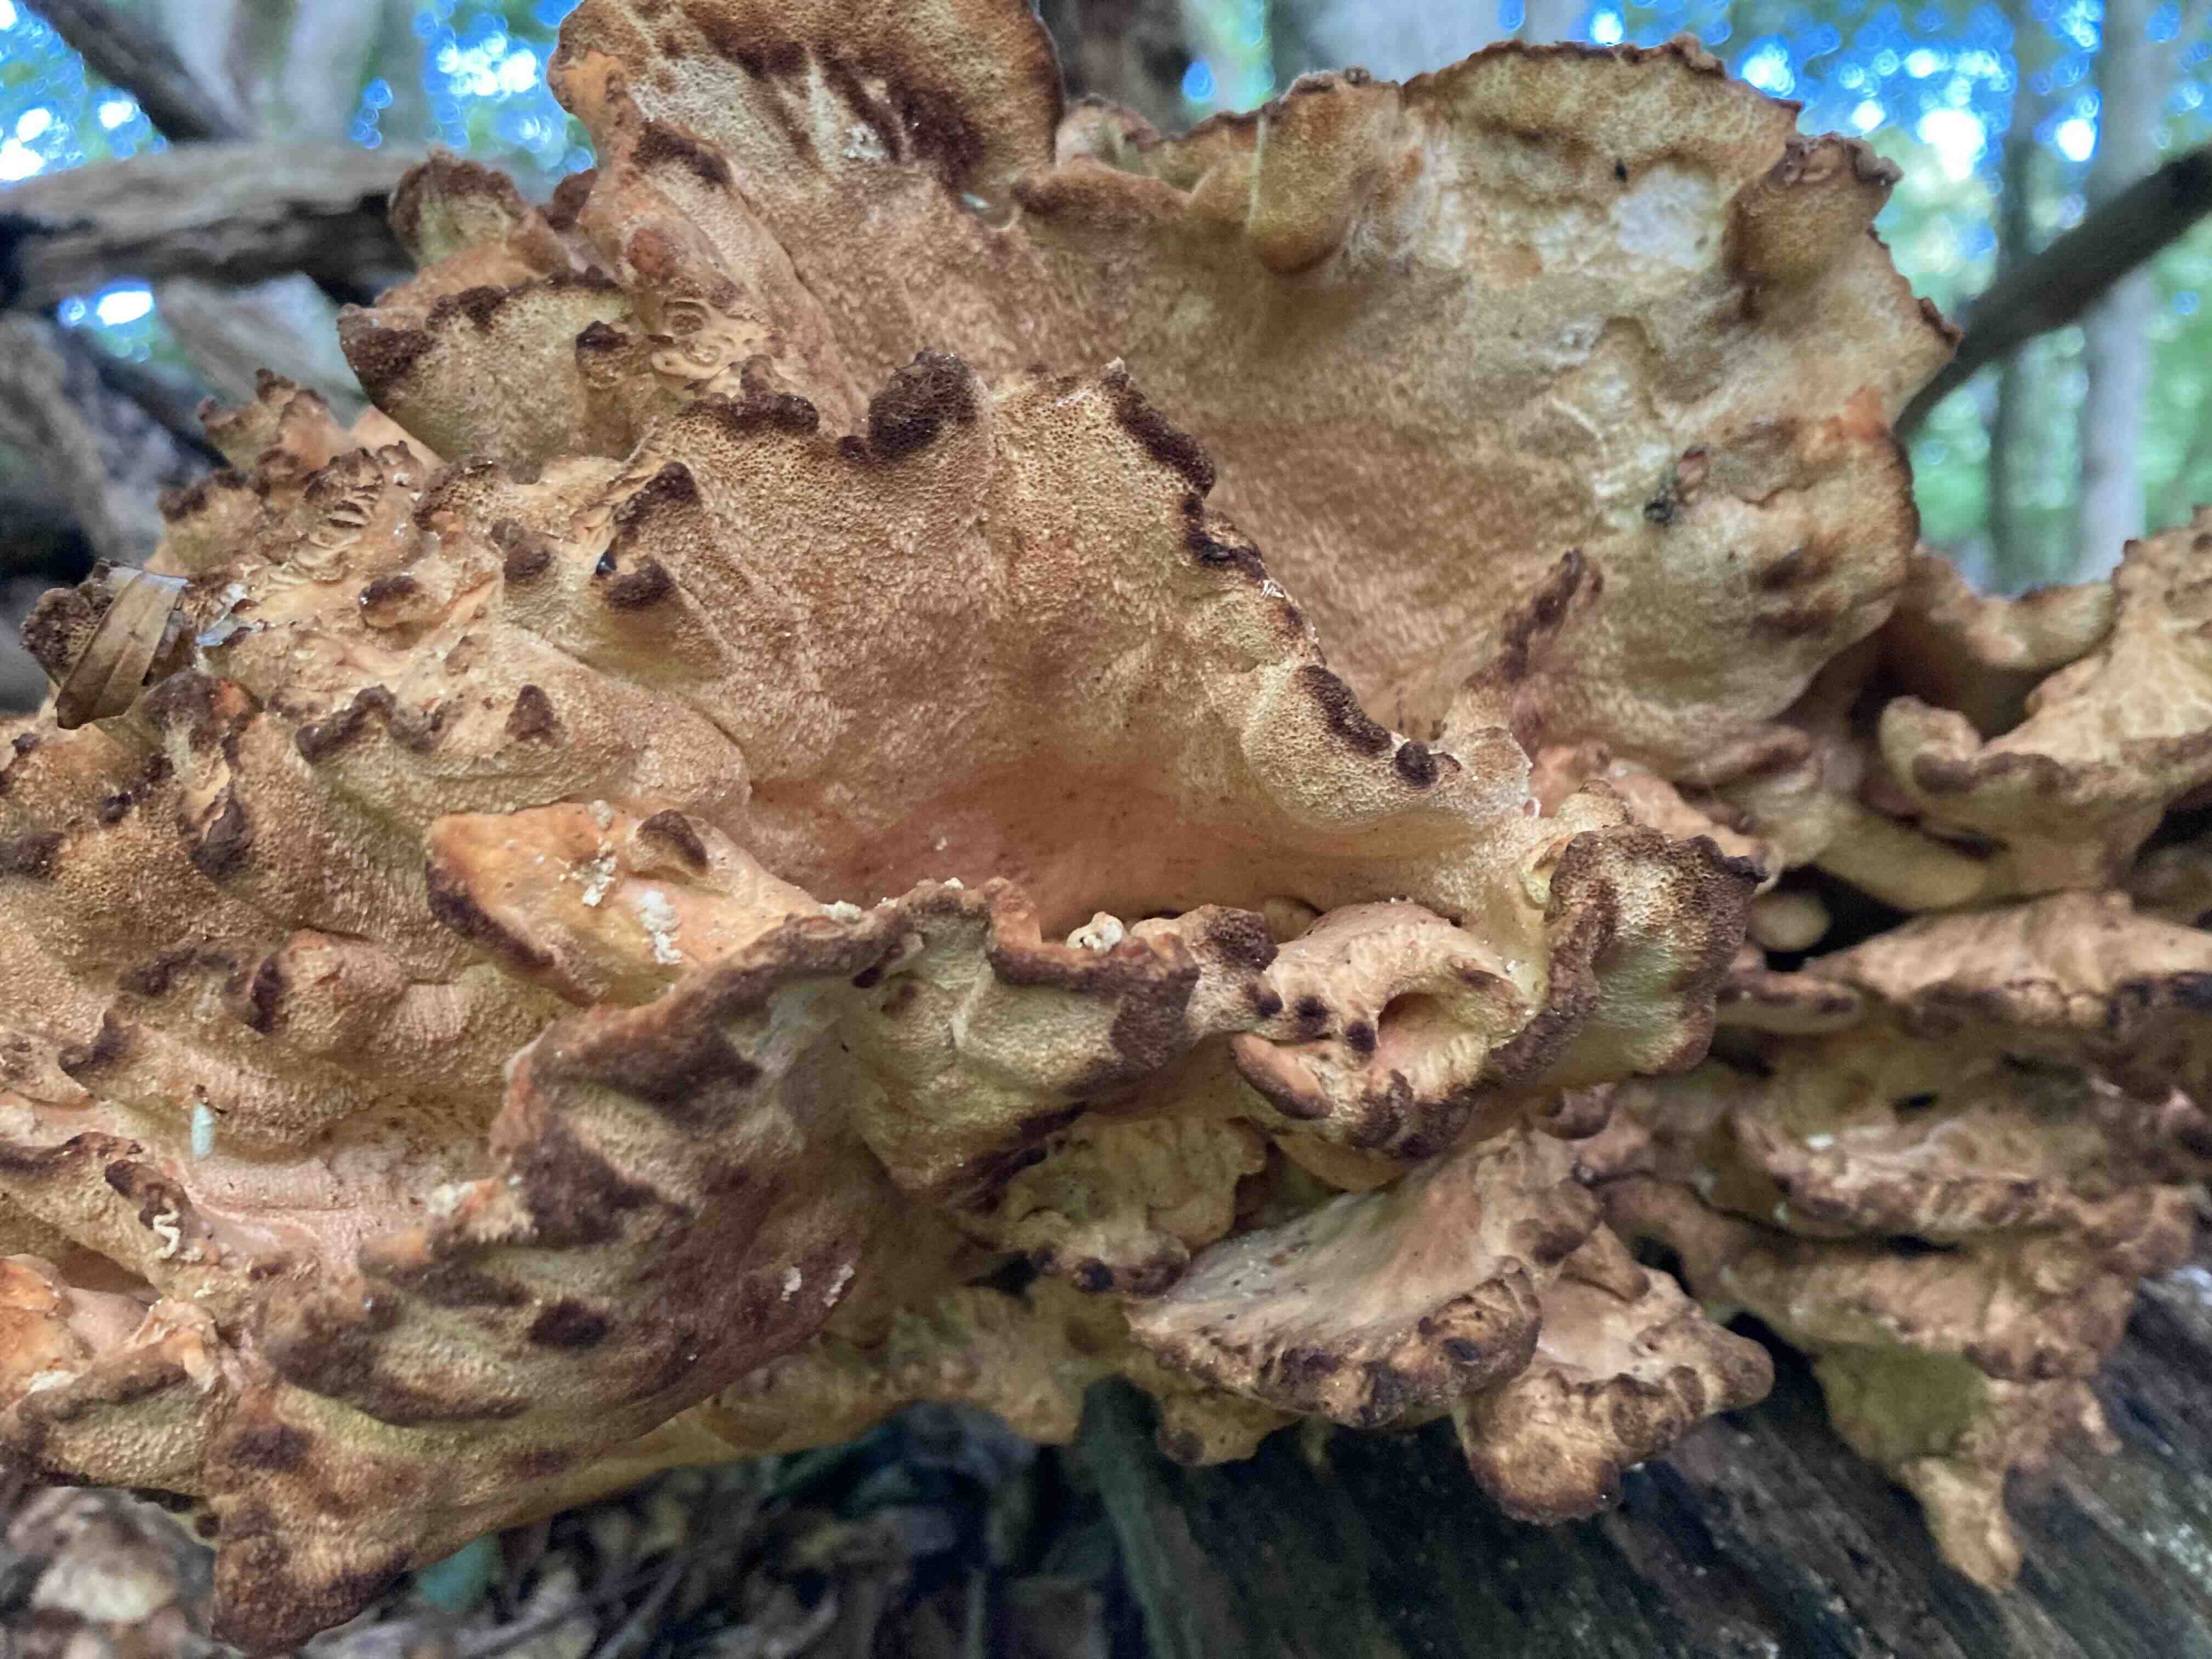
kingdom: Fungi
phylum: Basidiomycota
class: Agaricomycetes
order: Polyporales
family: Laetiporaceae
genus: Laetiporus
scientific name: Laetiporus sulphureus
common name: svovlporesvamp
